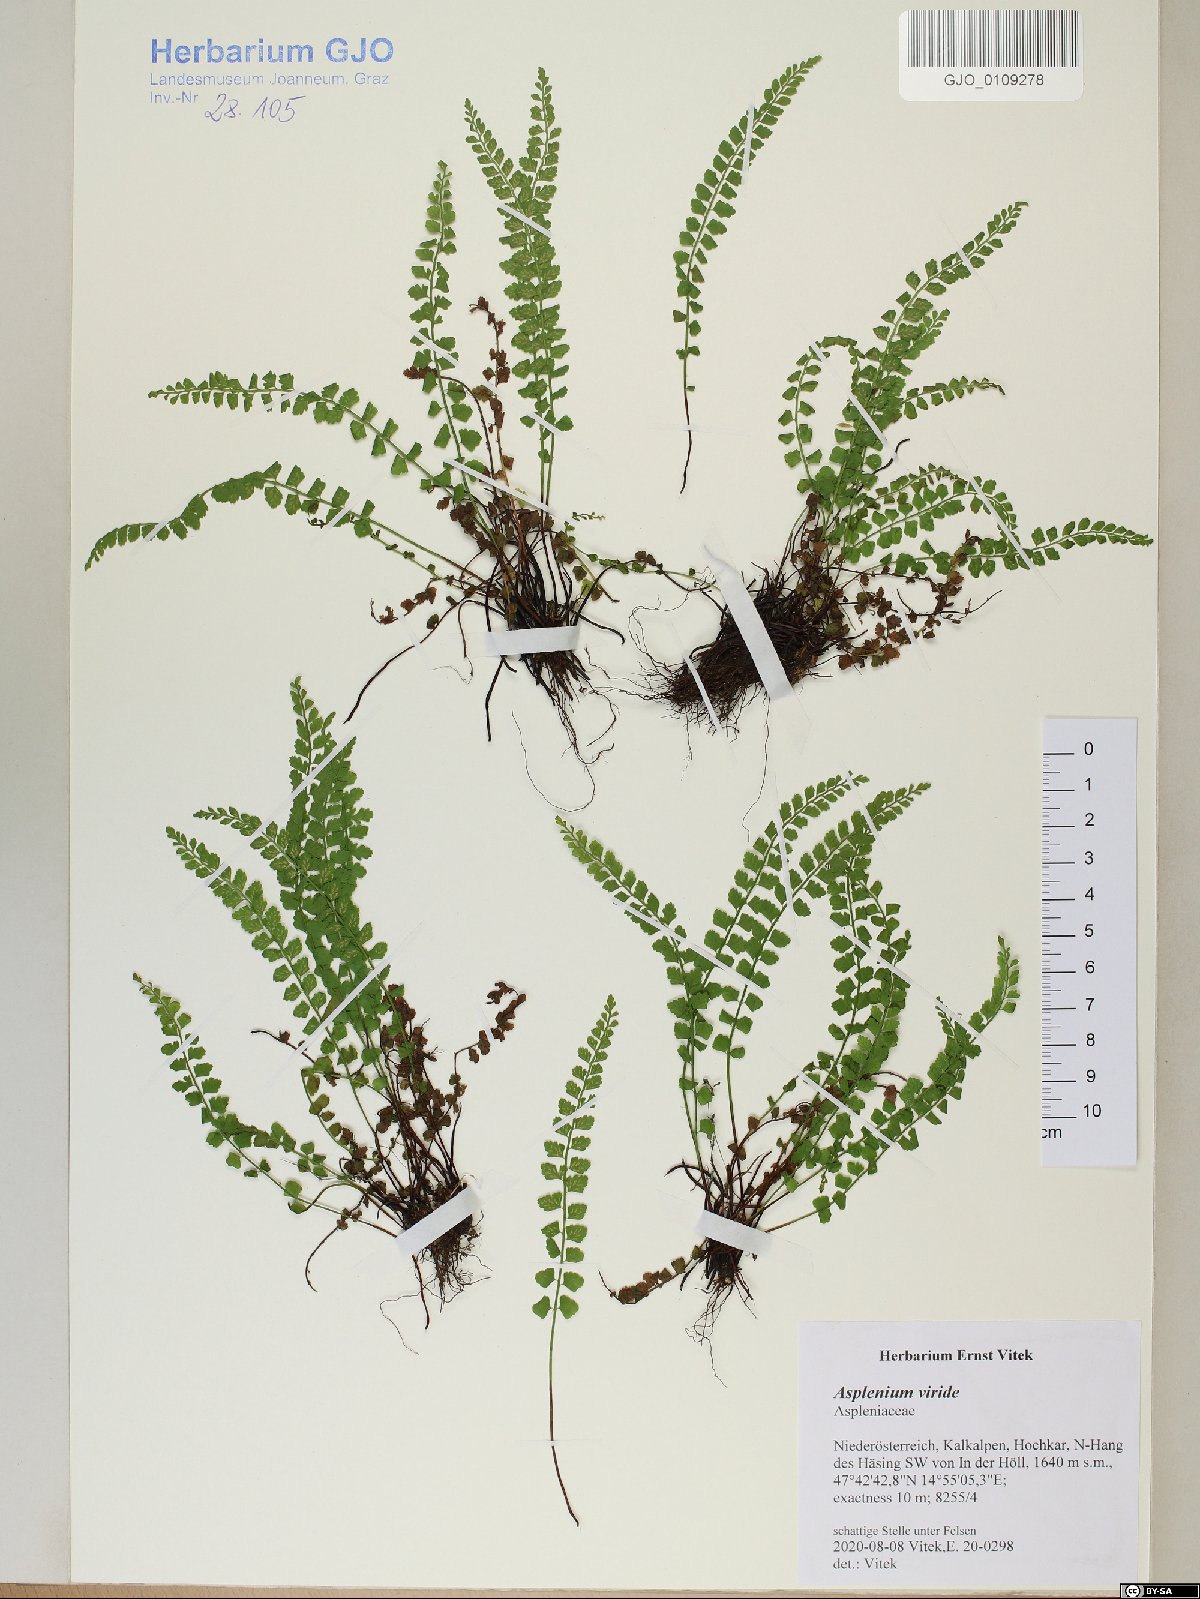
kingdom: Plantae
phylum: Tracheophyta
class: Polypodiopsida
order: Polypodiales
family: Aspleniaceae
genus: Asplenium
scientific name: Asplenium viride
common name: Green spleenwort
